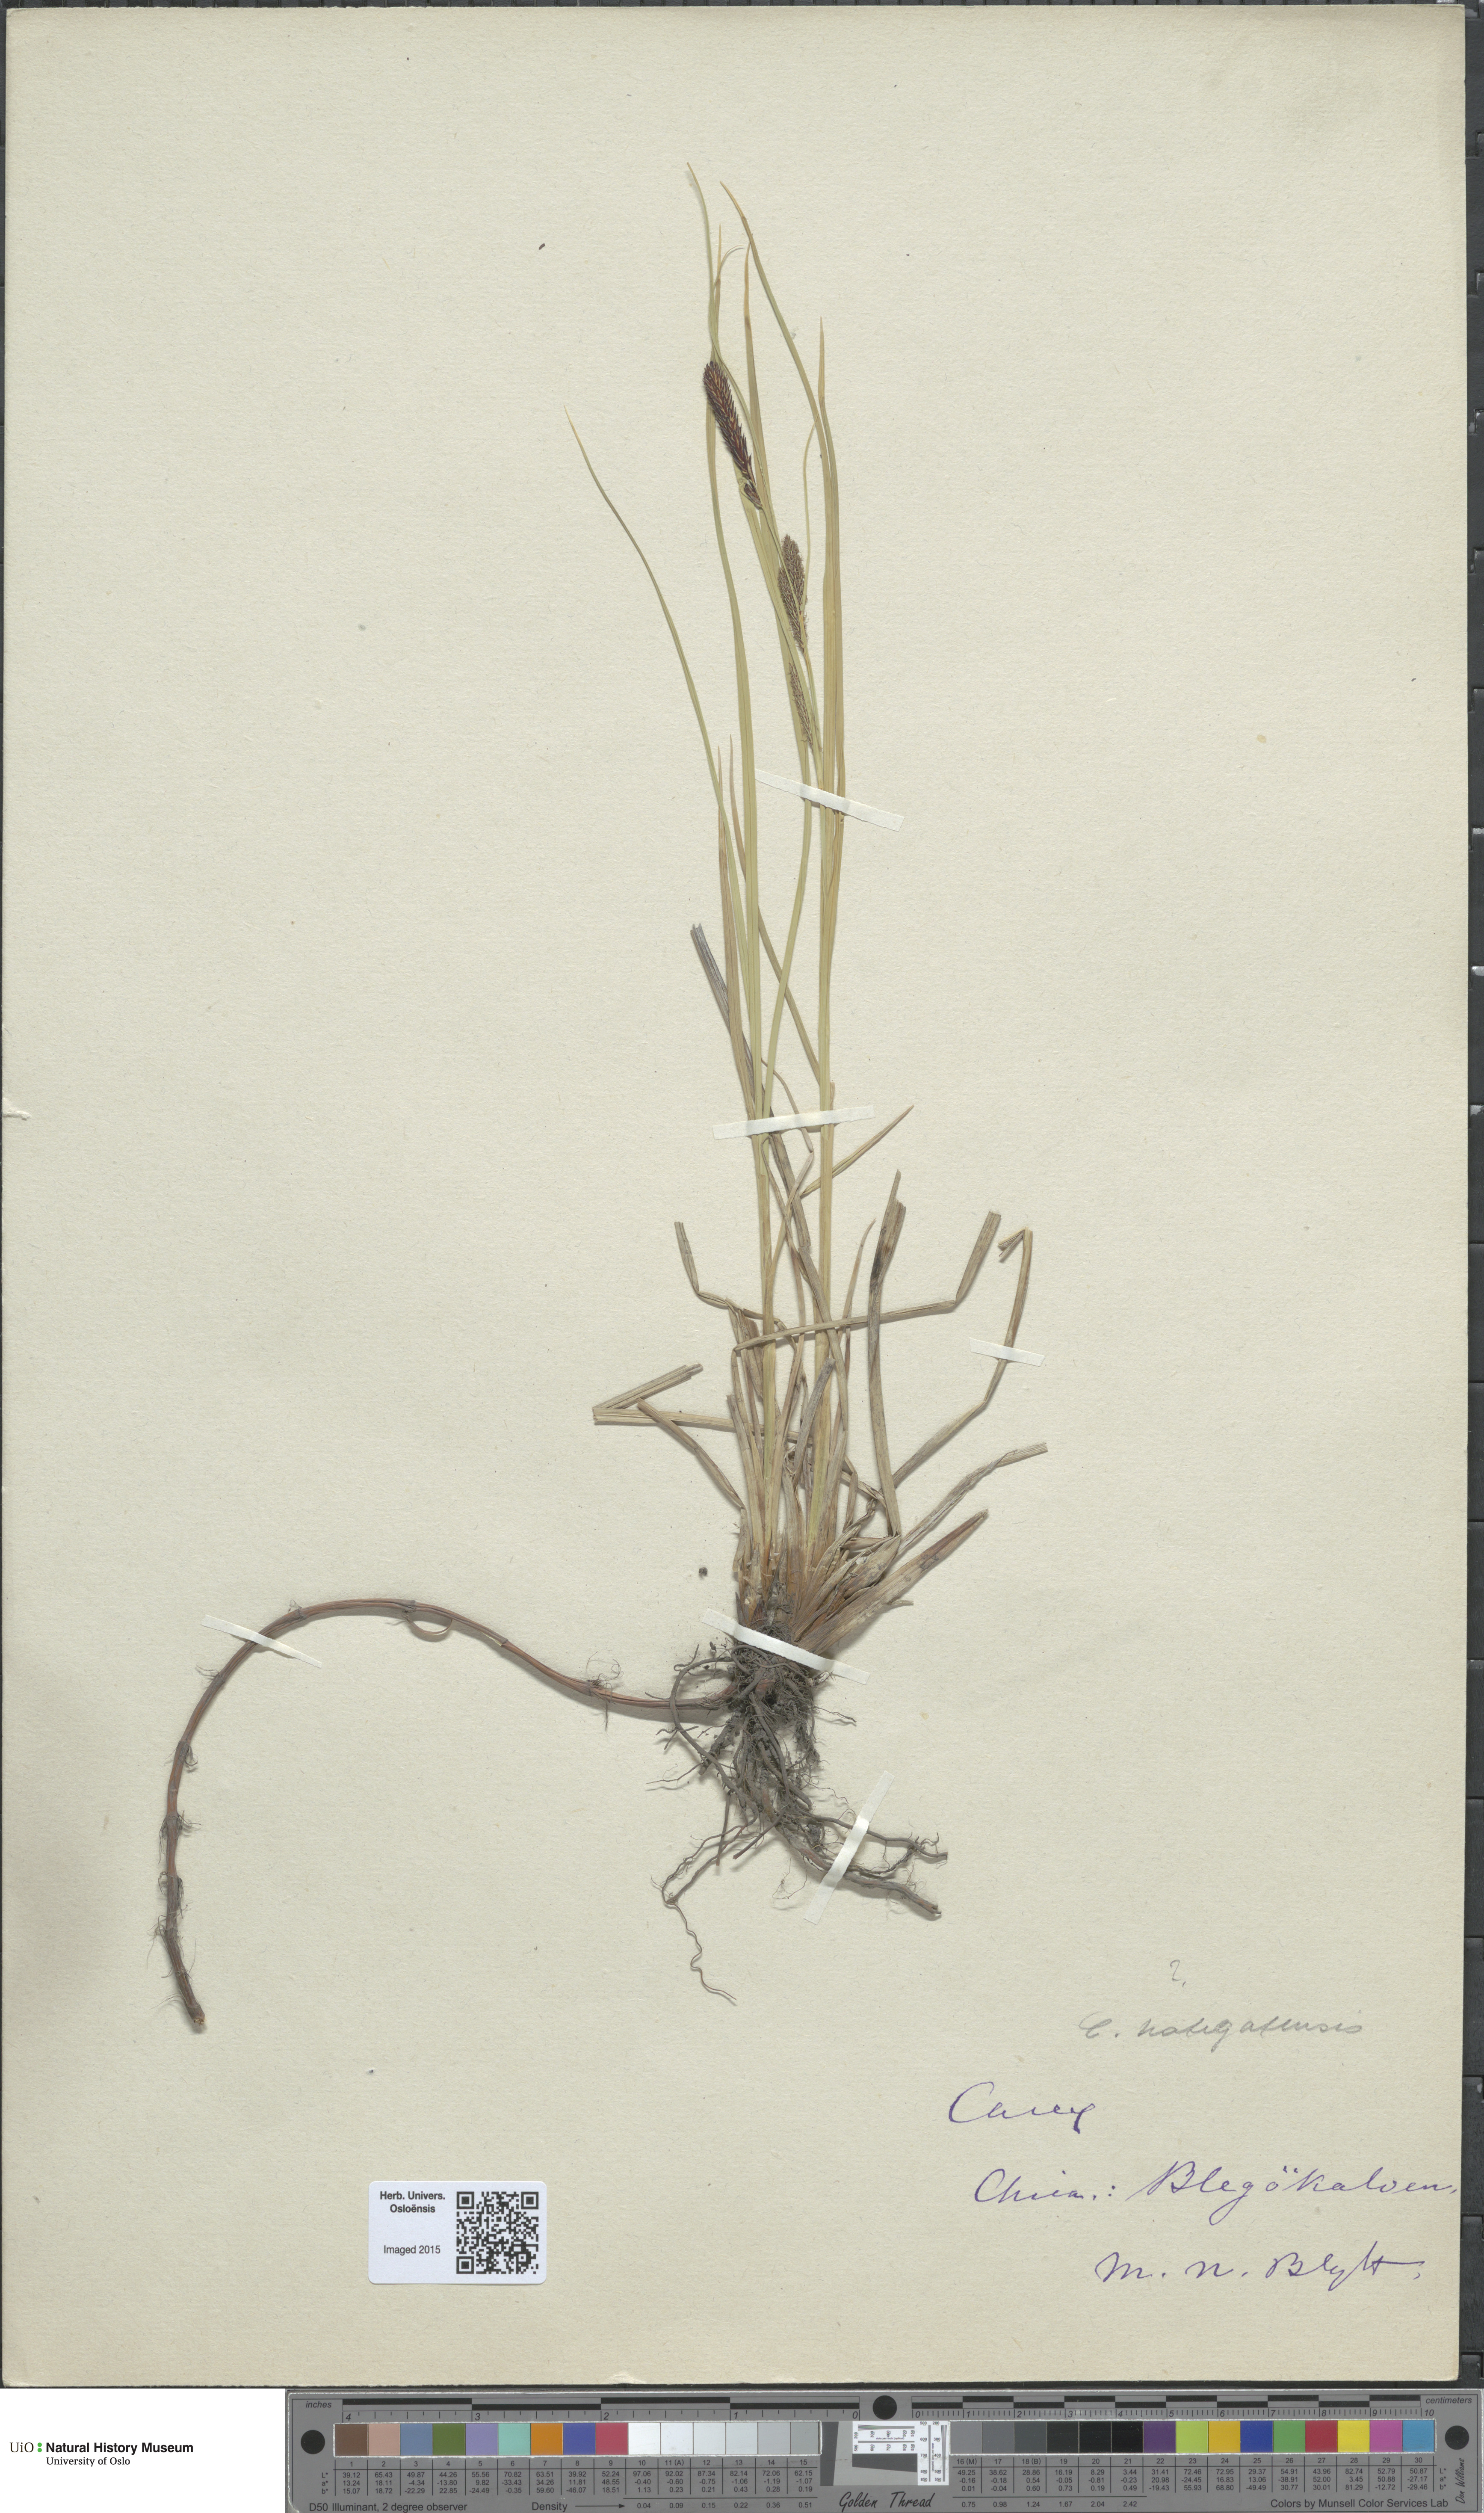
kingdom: Plantae
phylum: Tracheophyta
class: Liliopsida
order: Poales
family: Cyperaceae
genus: Carex
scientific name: Carex vacillans
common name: Sedge
